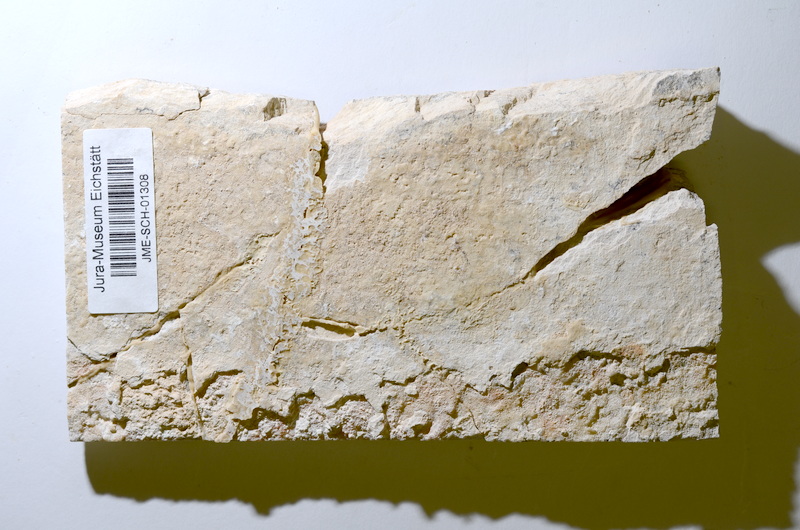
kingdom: Animalia
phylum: Chordata
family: Ascalaboidae
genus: Tharsis
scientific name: Tharsis dubius
